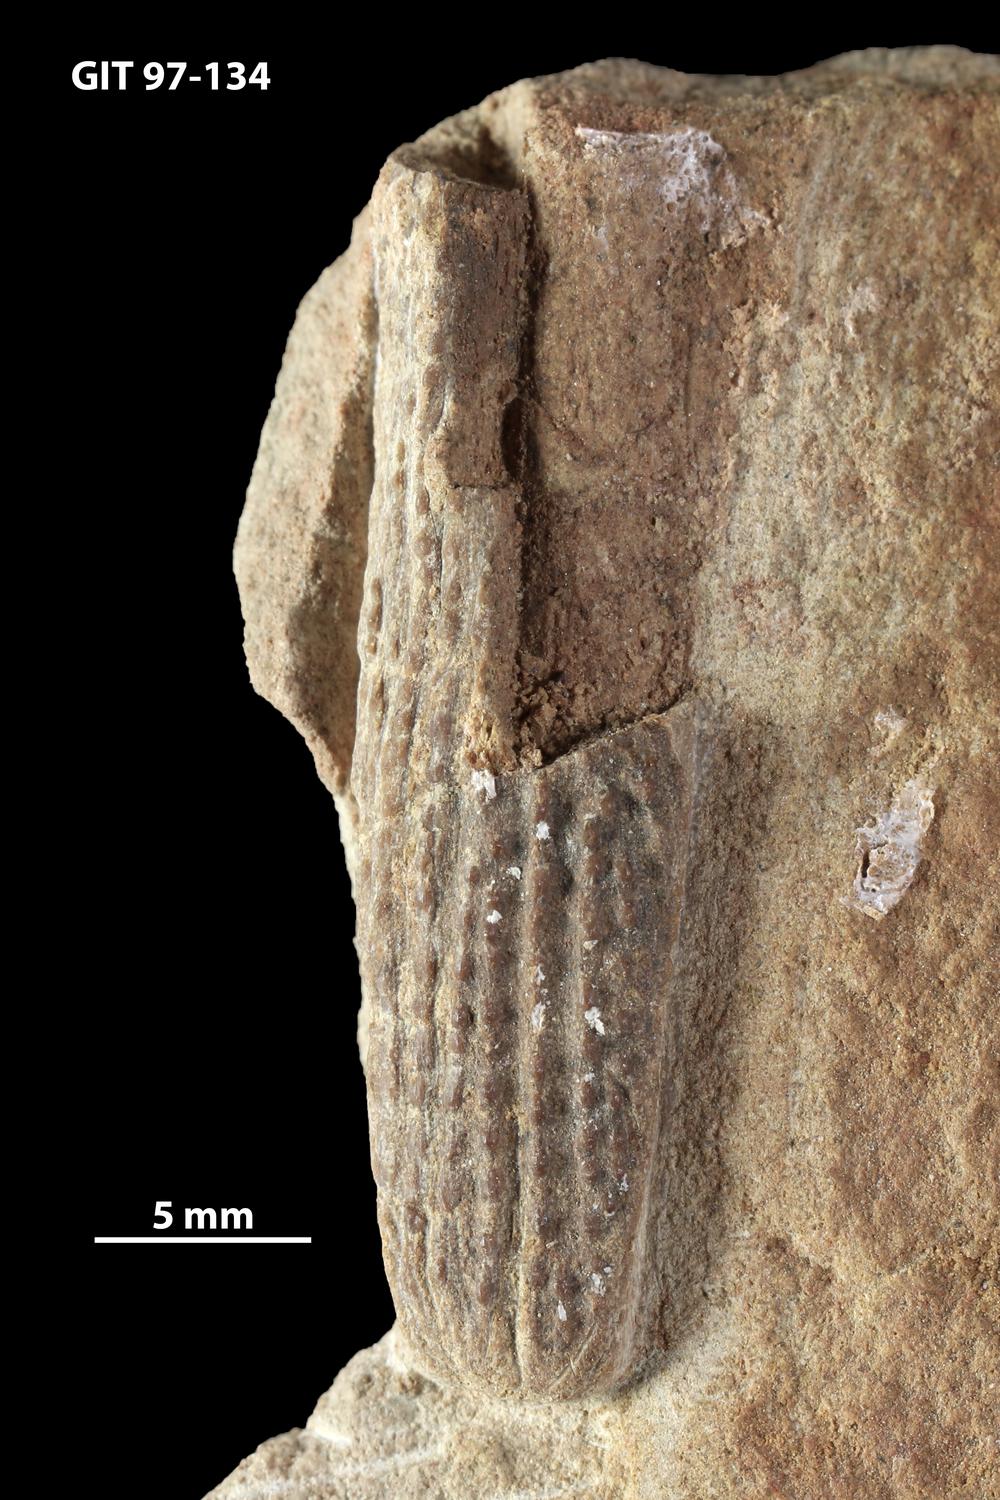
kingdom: Animalia
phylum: Chordata
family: Holonematidae
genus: Holonema
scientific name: Holonema
